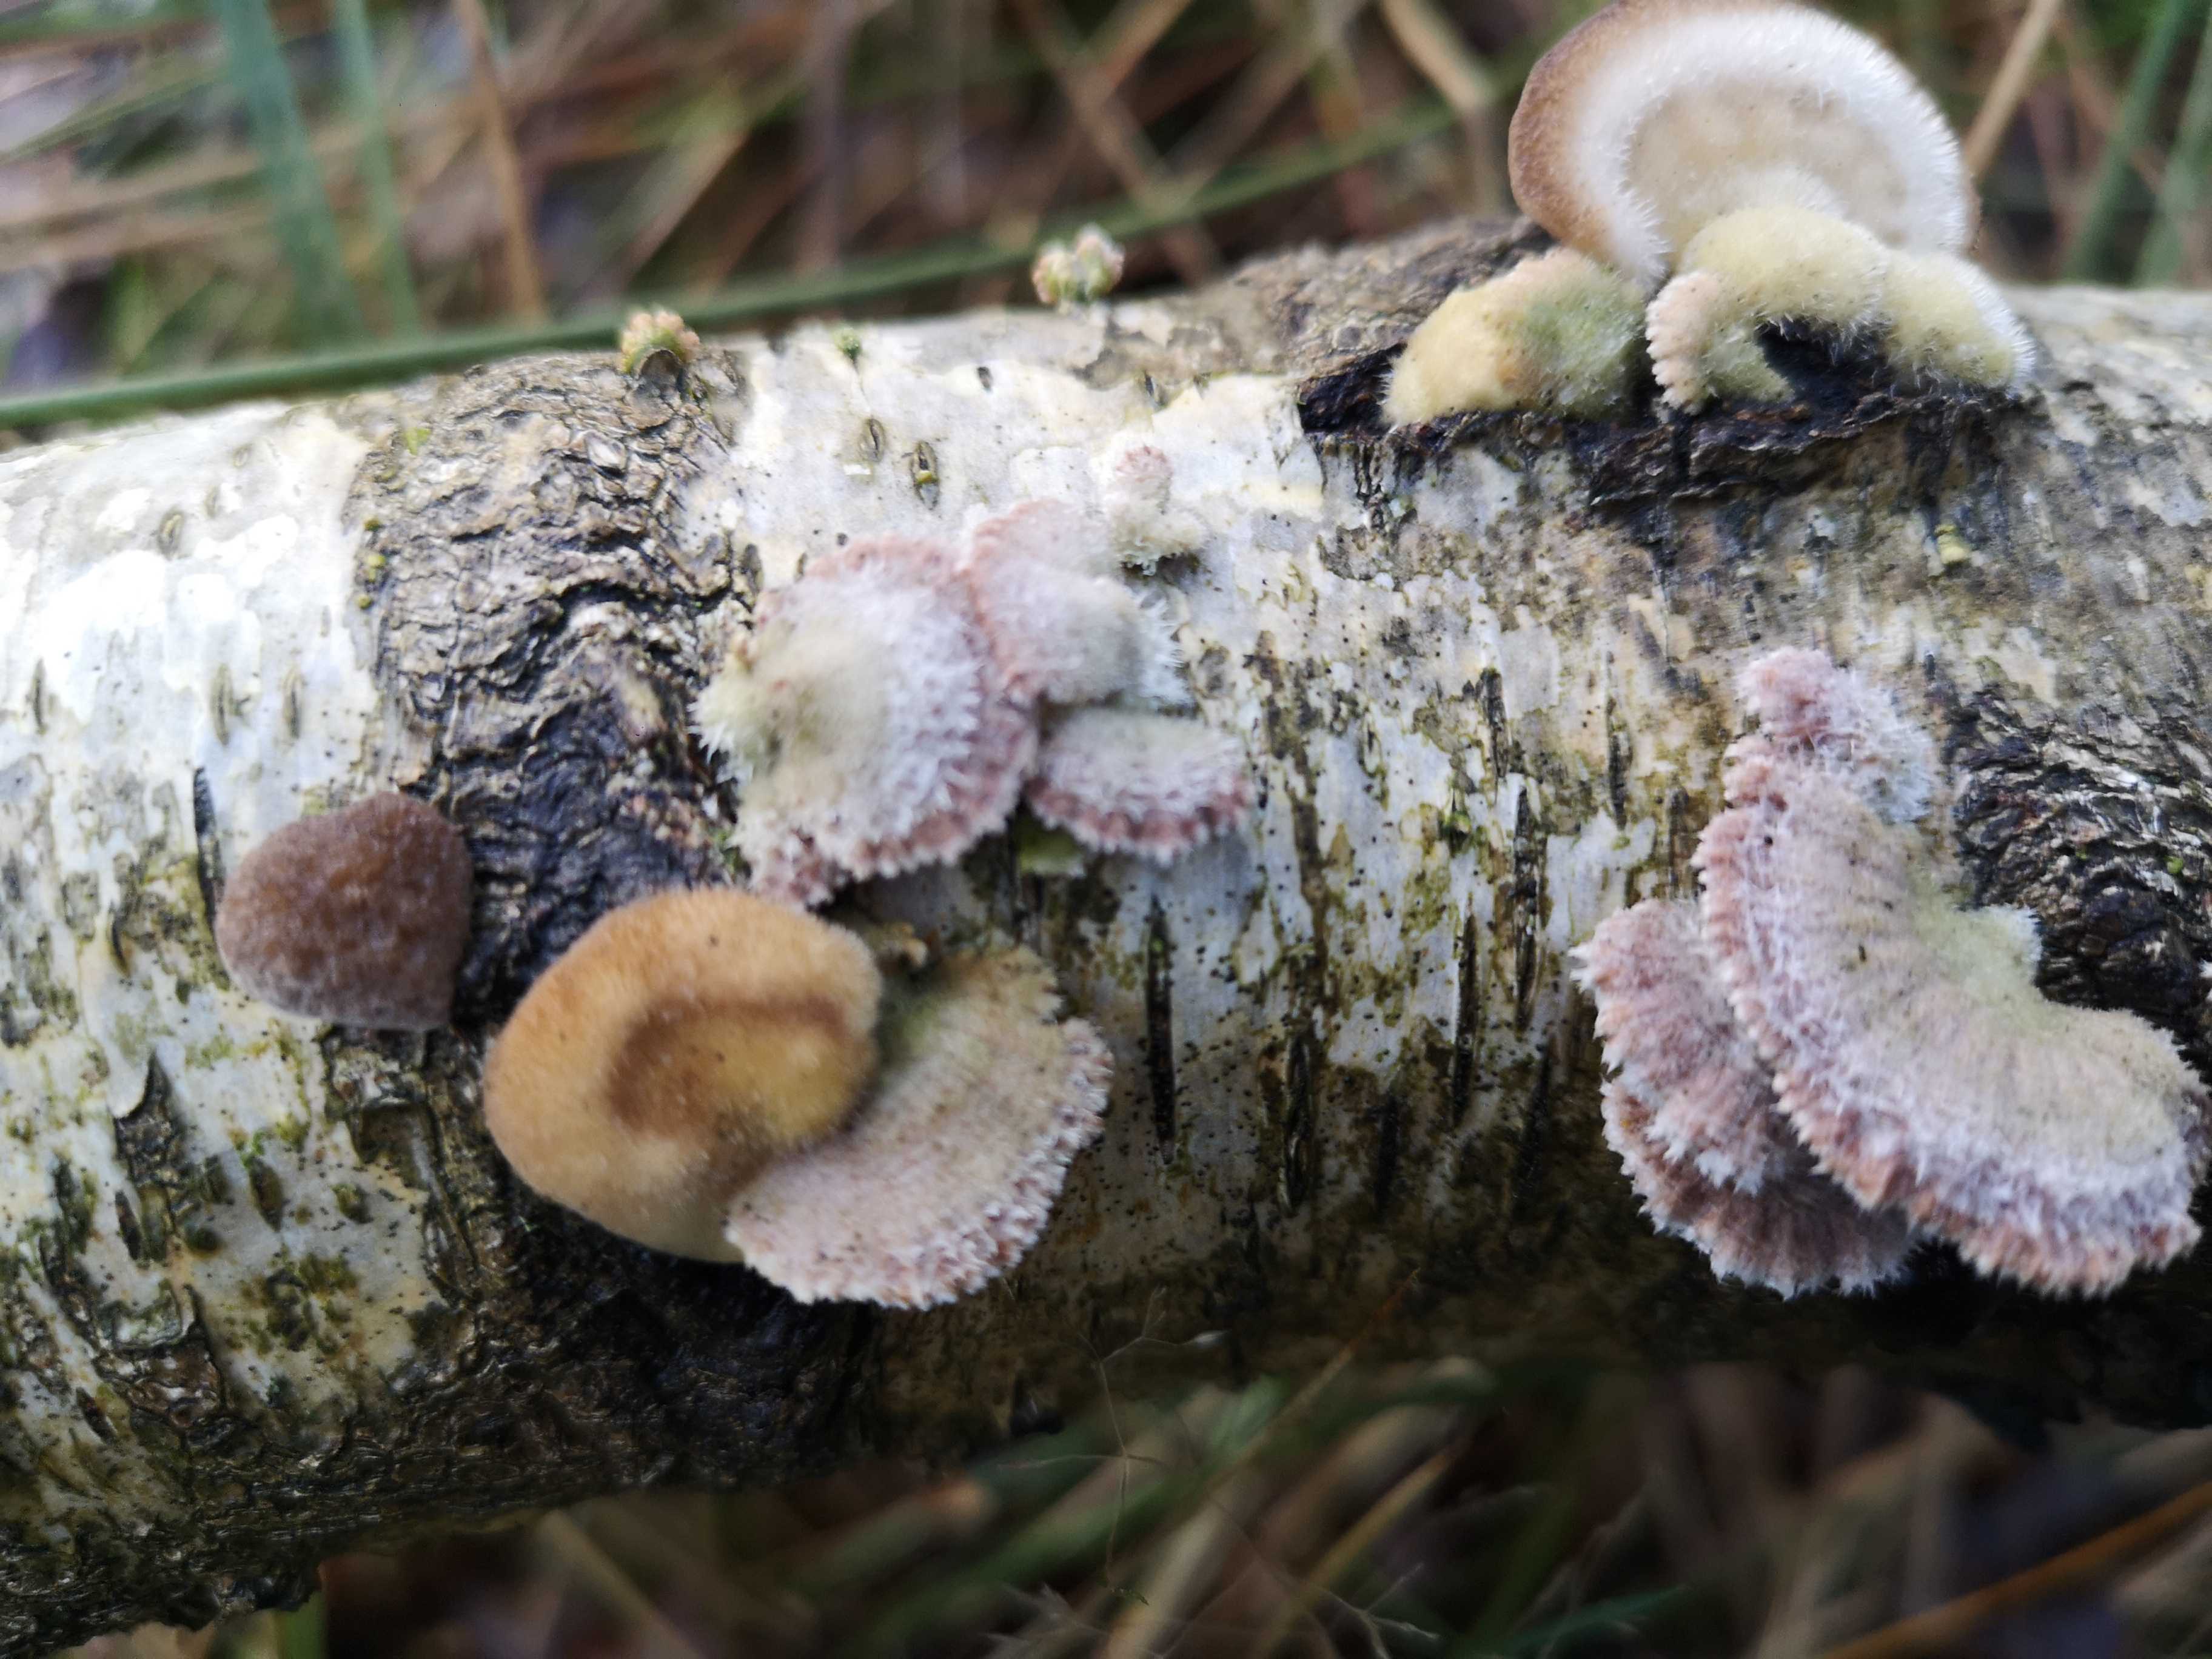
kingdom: Fungi
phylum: Basidiomycota
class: Agaricomycetes
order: Agaricales
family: Schizophyllaceae
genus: Schizophyllum
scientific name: Schizophyllum commune
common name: kløvblad
